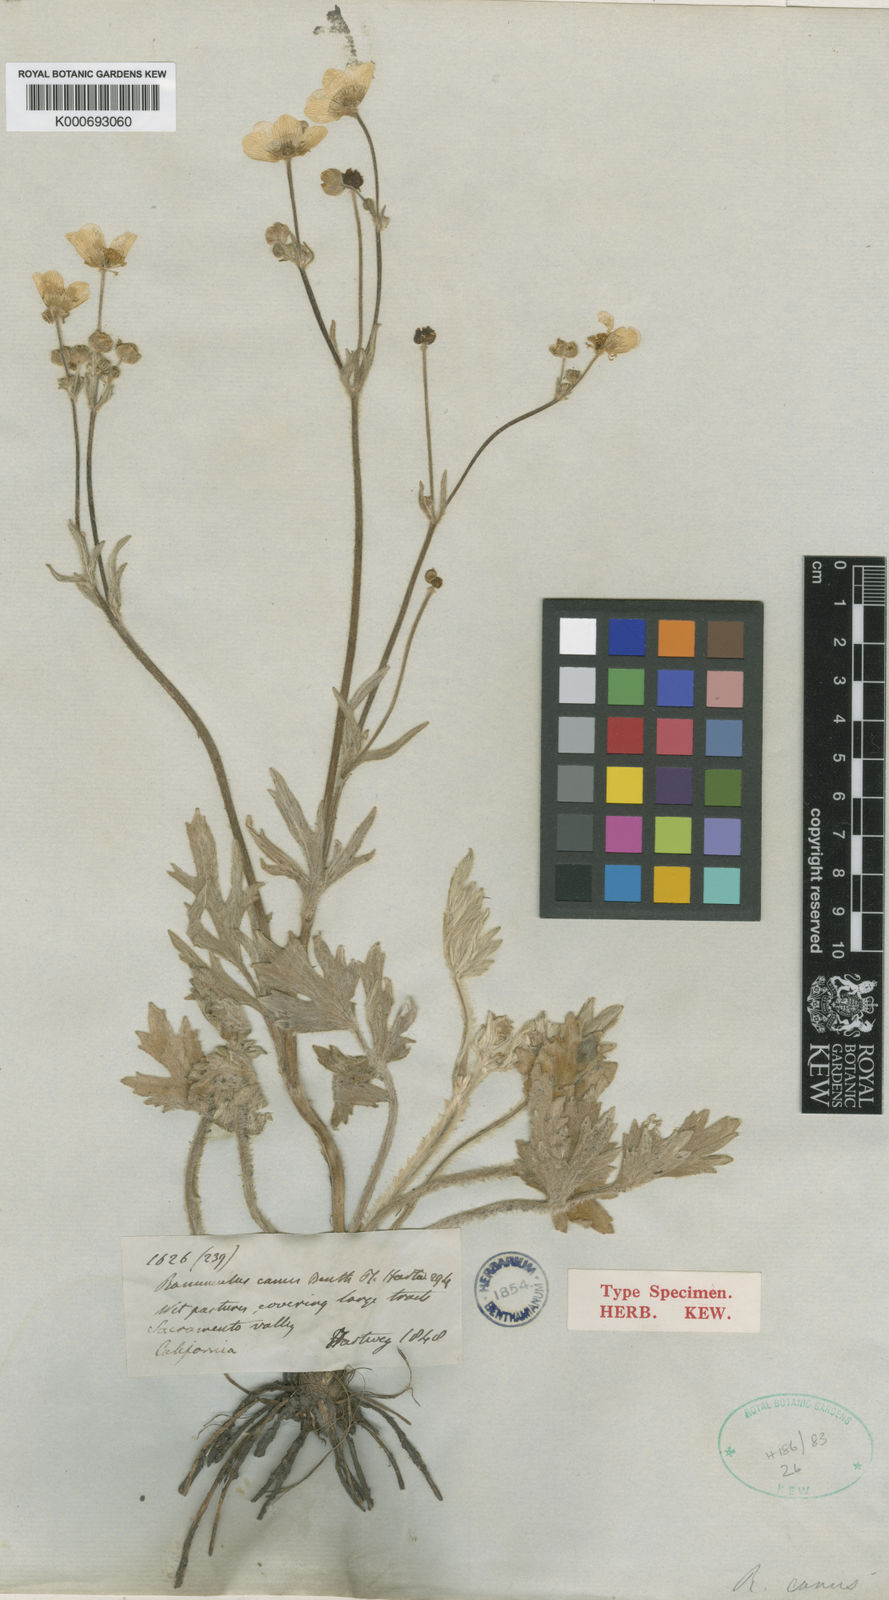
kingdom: Plantae
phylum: Tracheophyta
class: Magnoliopsida
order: Ranunculales
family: Ranunculaceae
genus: Ranunculus
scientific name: Ranunculus canus
